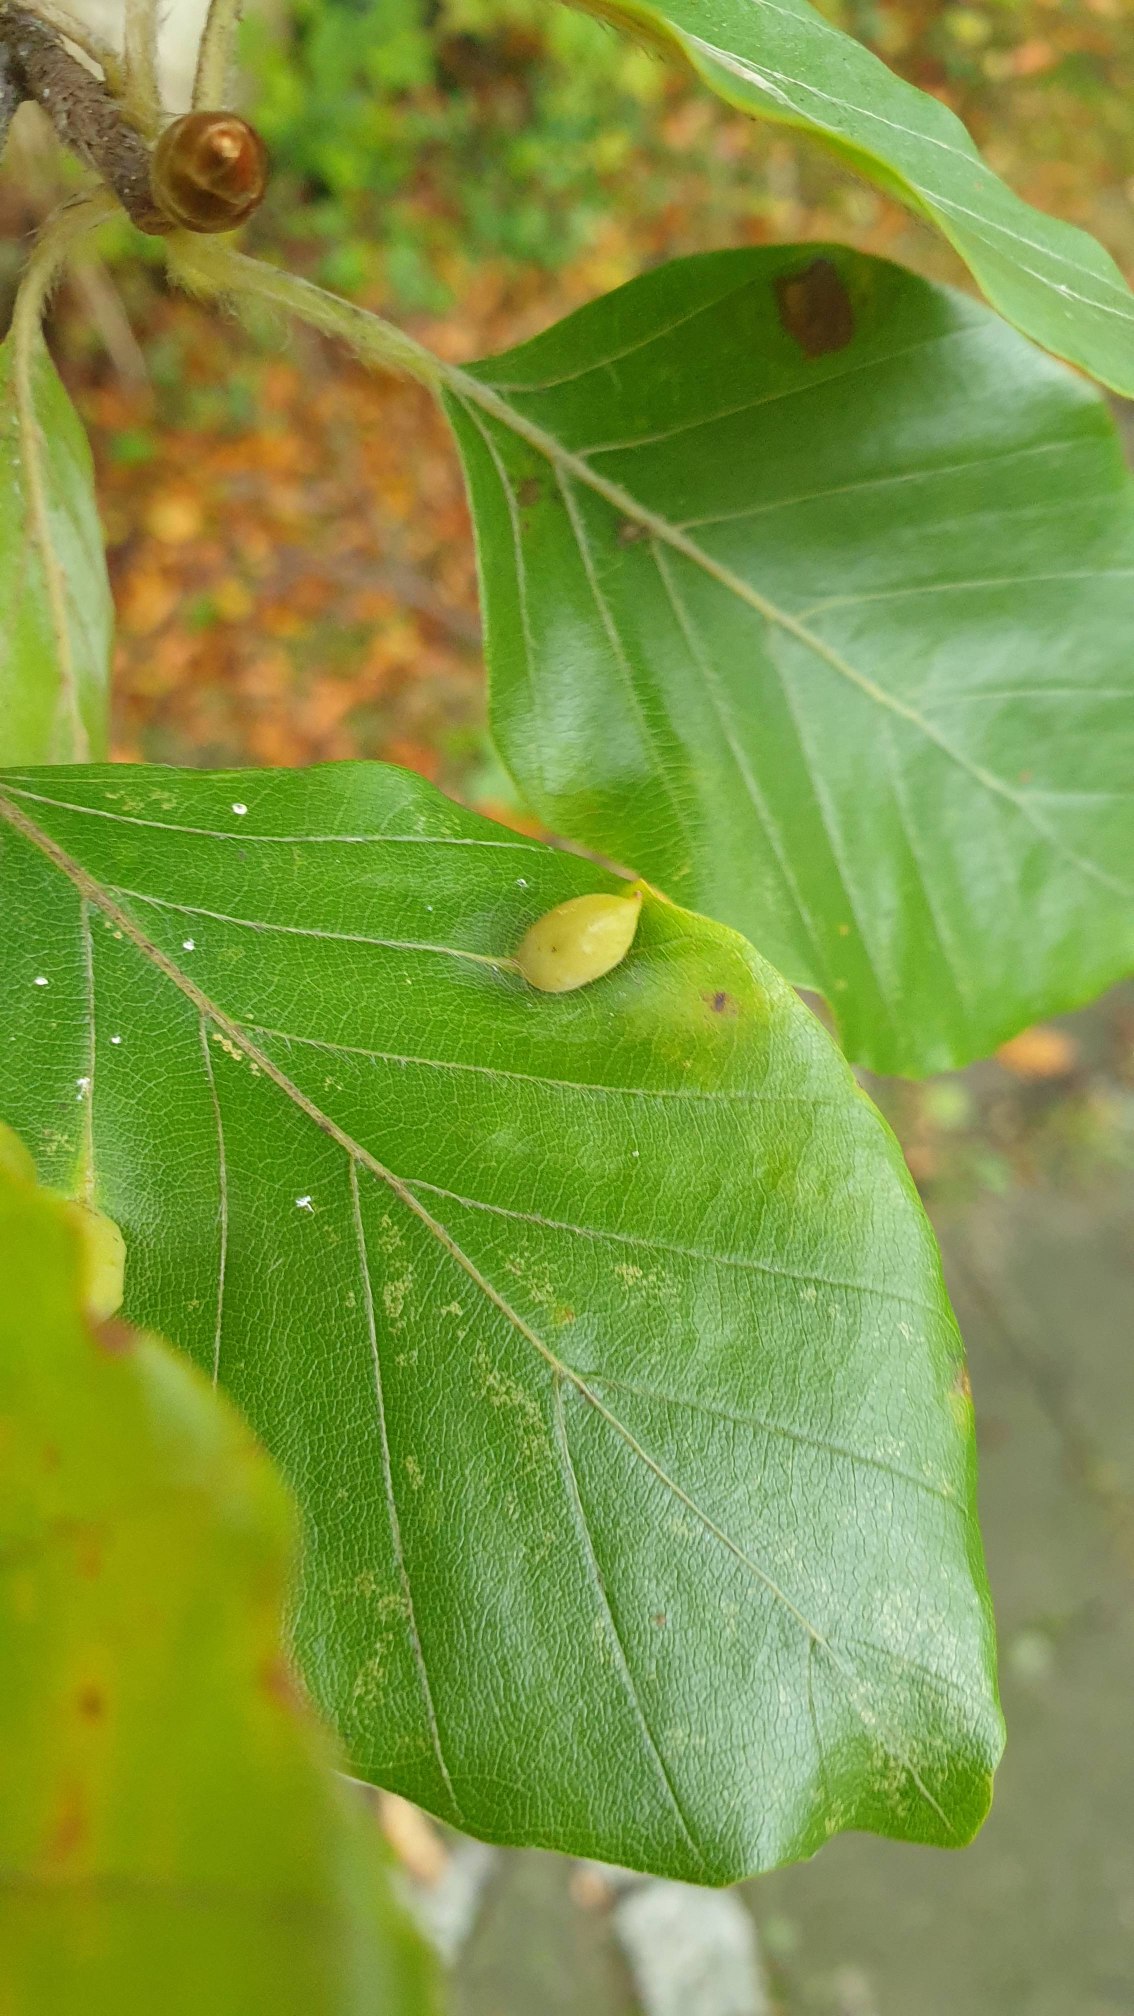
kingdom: Animalia
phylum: Arthropoda
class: Insecta
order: Diptera
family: Cecidomyiidae
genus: Mikiola
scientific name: Mikiola fagi
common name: Bøgegalmyg
